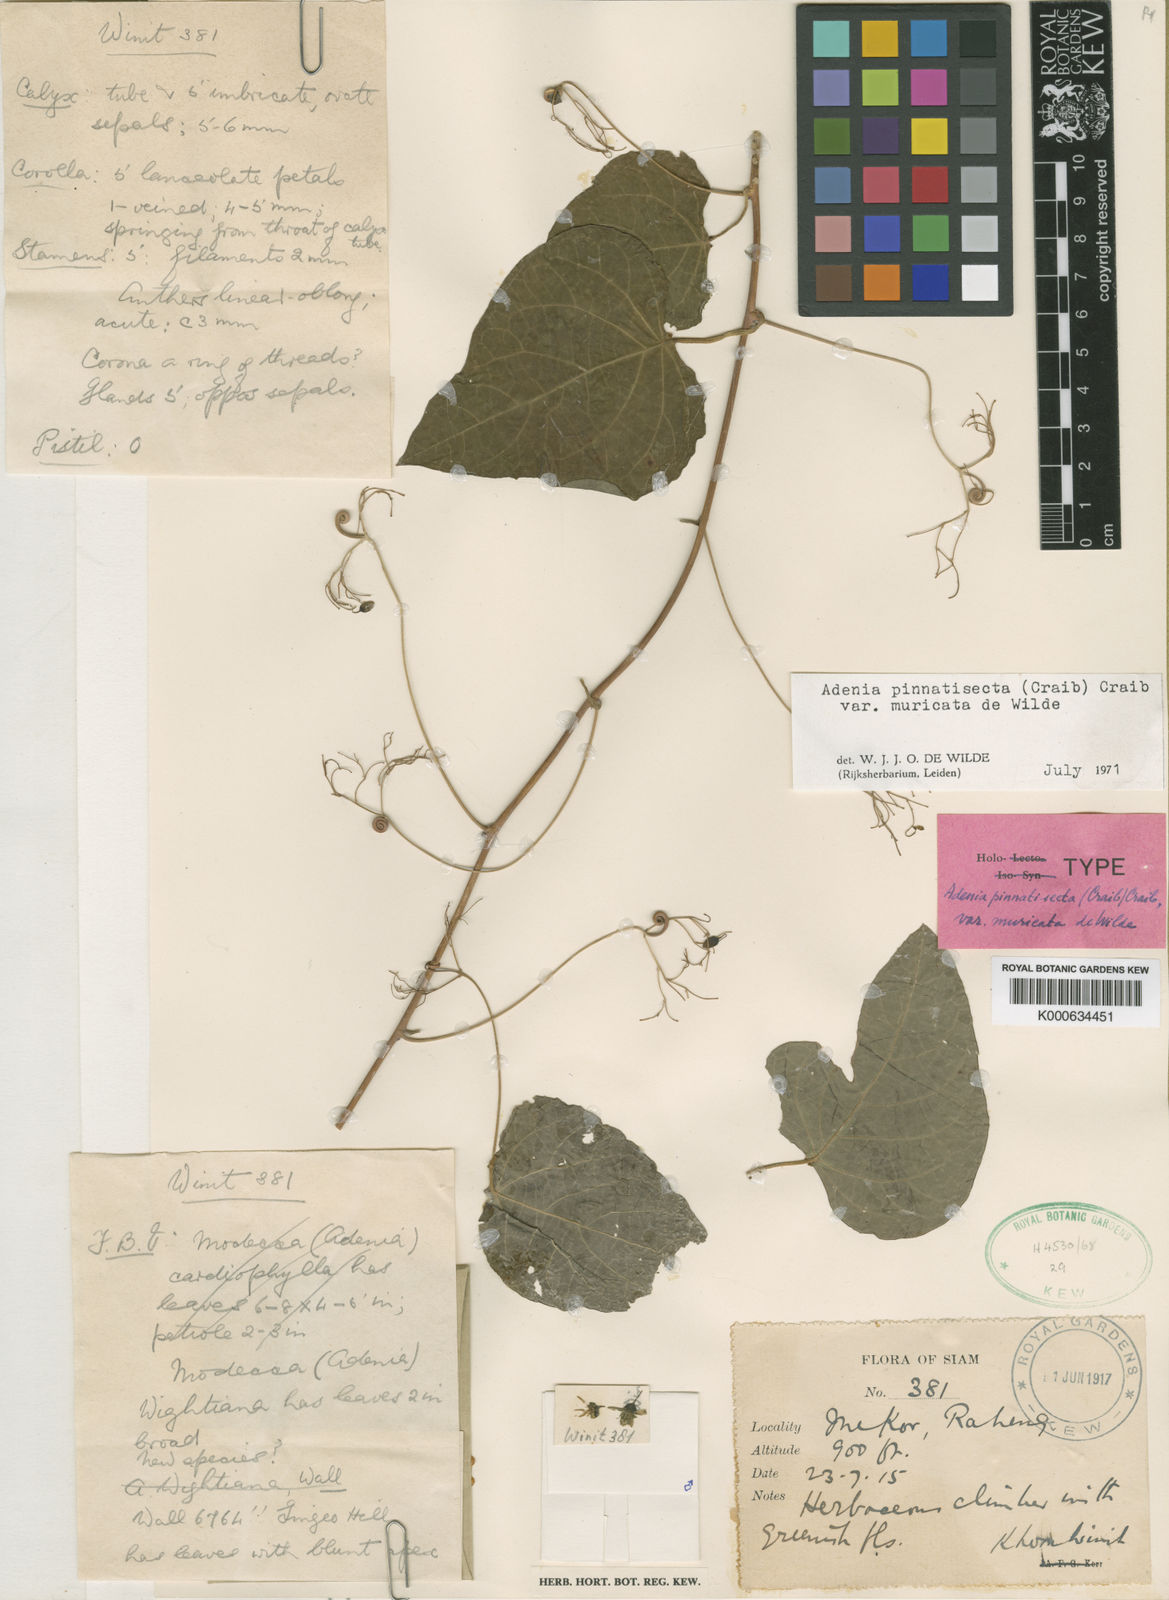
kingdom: Plantae
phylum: Tracheophyta
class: Magnoliopsida
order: Malpighiales
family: Passifloraceae
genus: Adenia
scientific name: Adenia pinnatisecta
